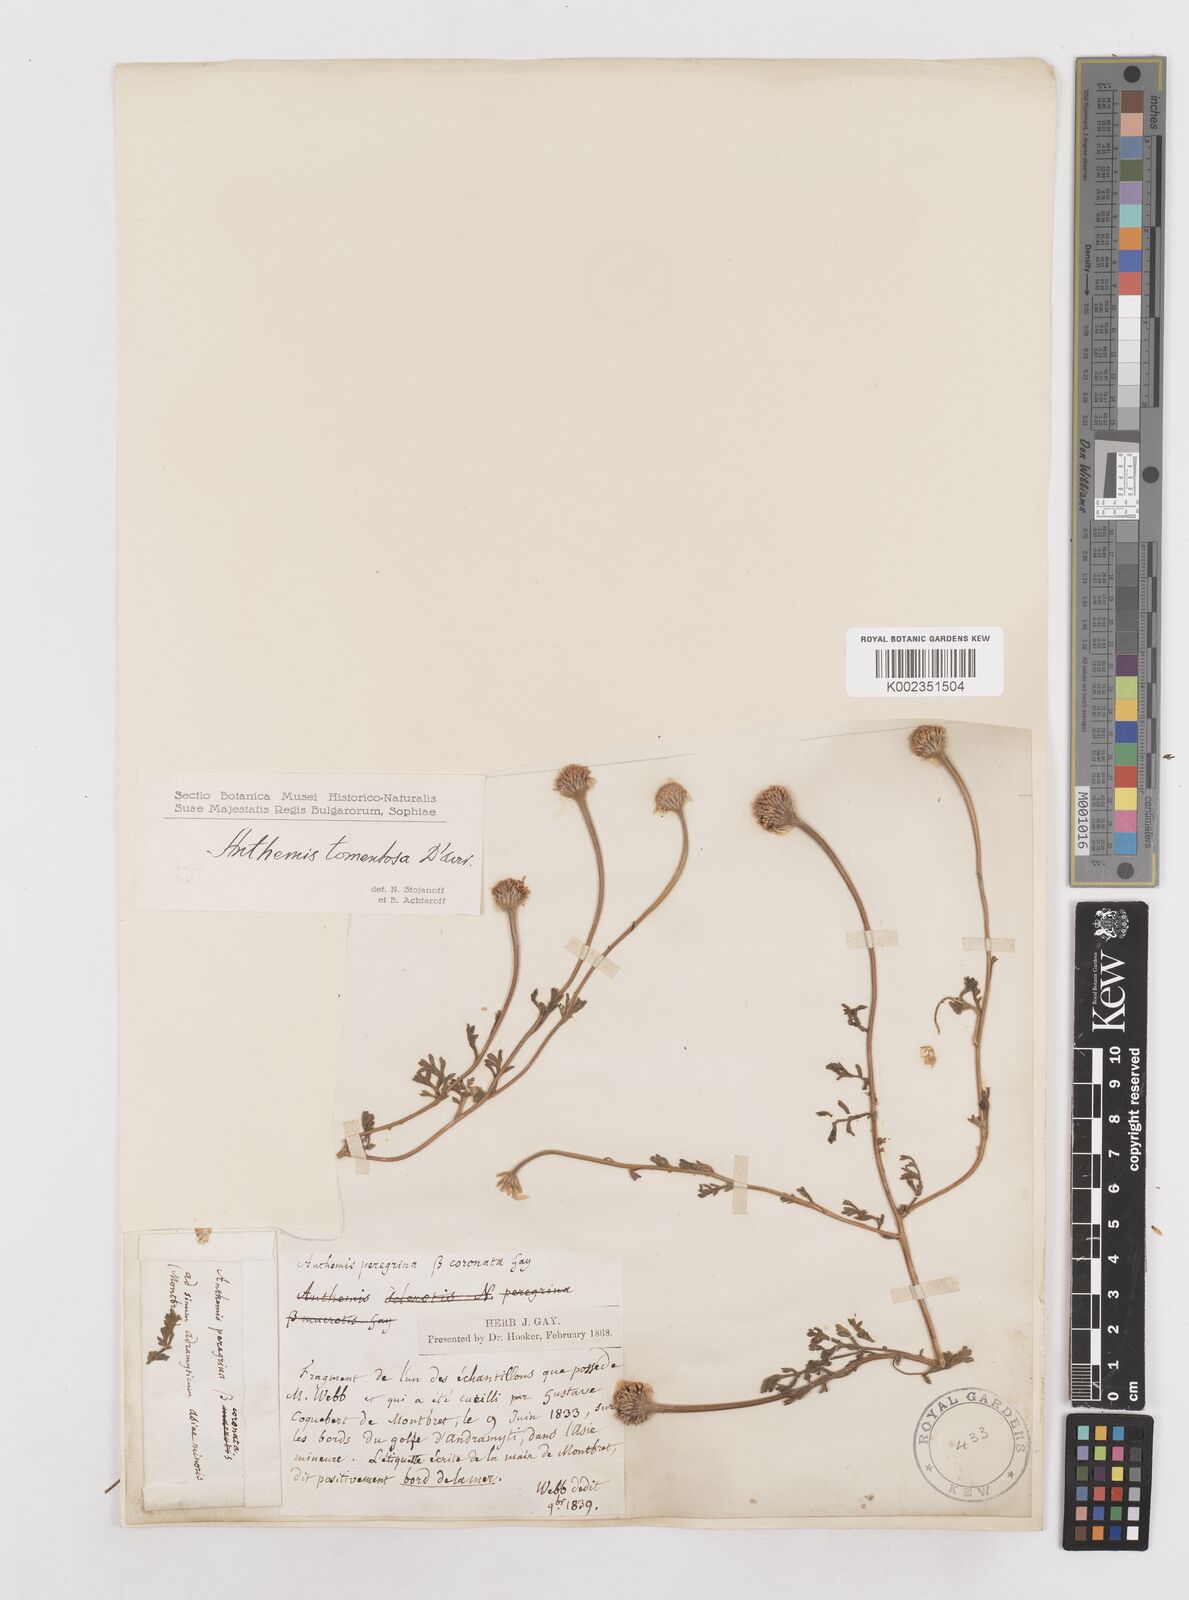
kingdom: Plantae
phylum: Tracheophyta
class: Magnoliopsida
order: Asterales
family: Asteraceae
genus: Anthemis
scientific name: Anthemis tomentosa
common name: Woolly chamomile
